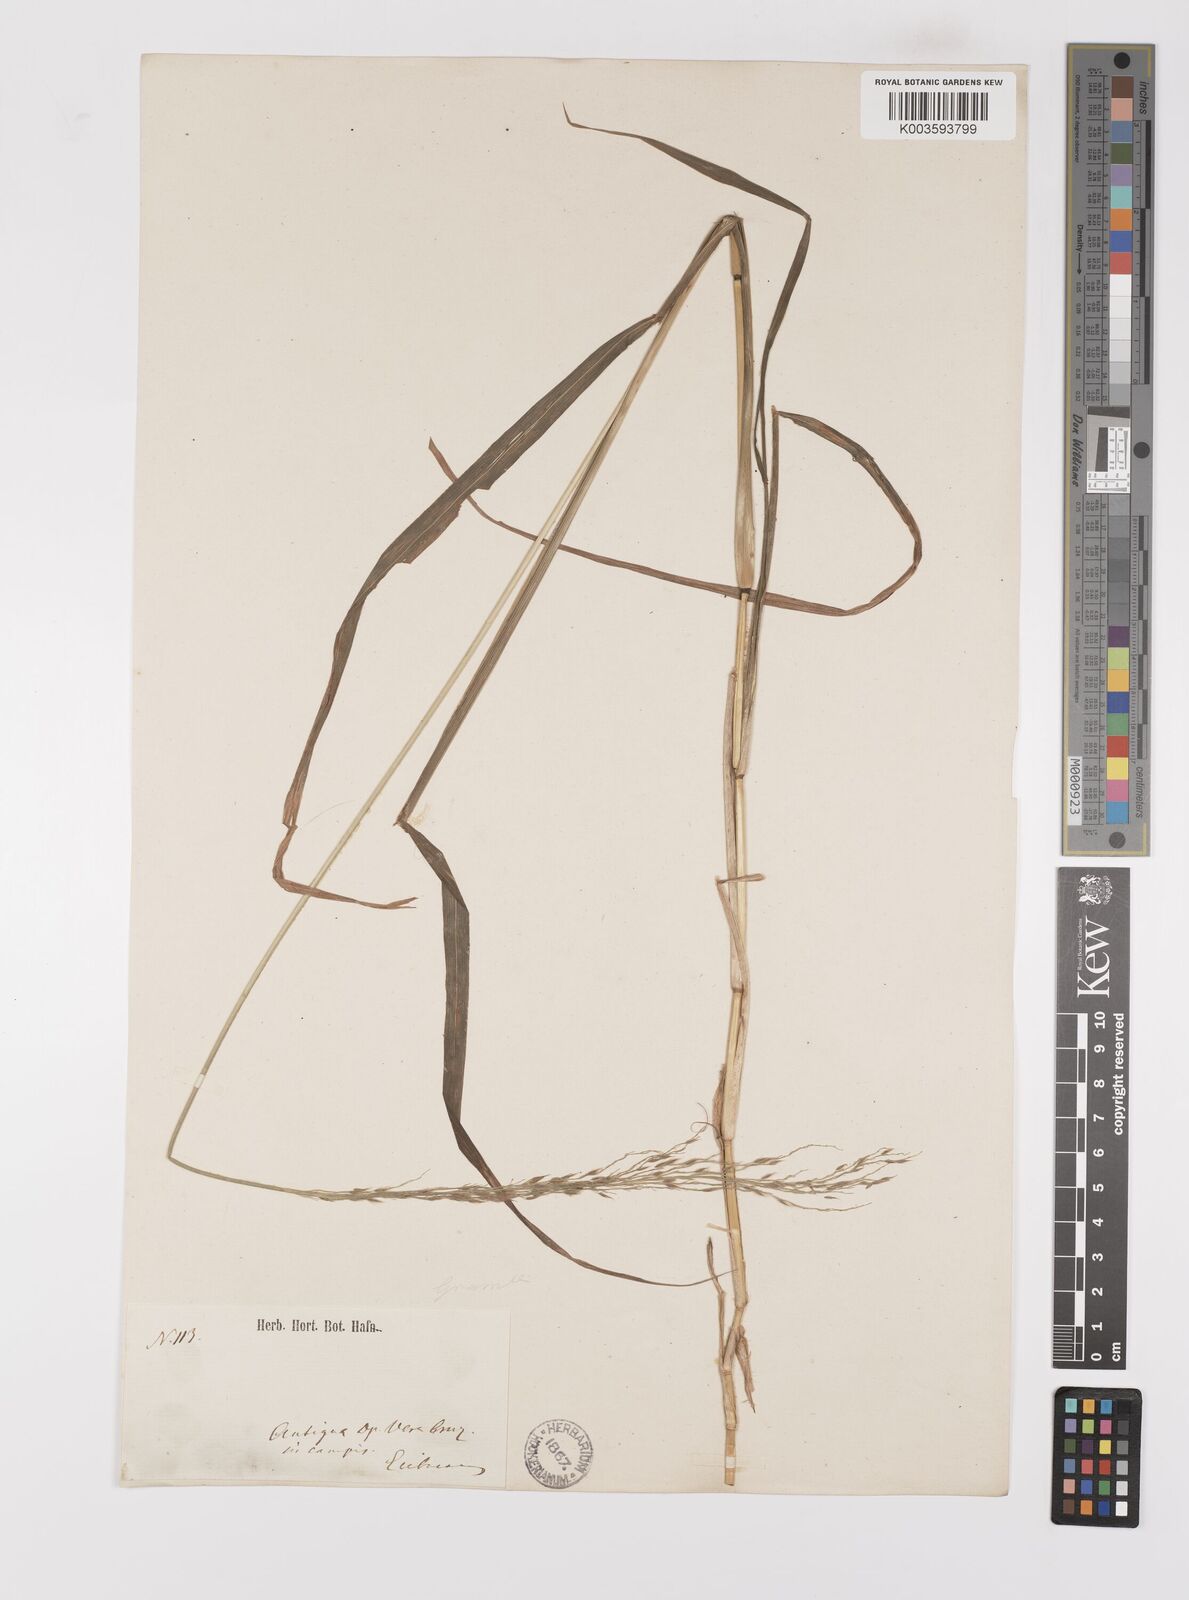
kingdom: Plantae
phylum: Tracheophyta
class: Liliopsida
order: Poales
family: Poaceae
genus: Digitaria
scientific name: Digitaria insularis
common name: Sourgrass
